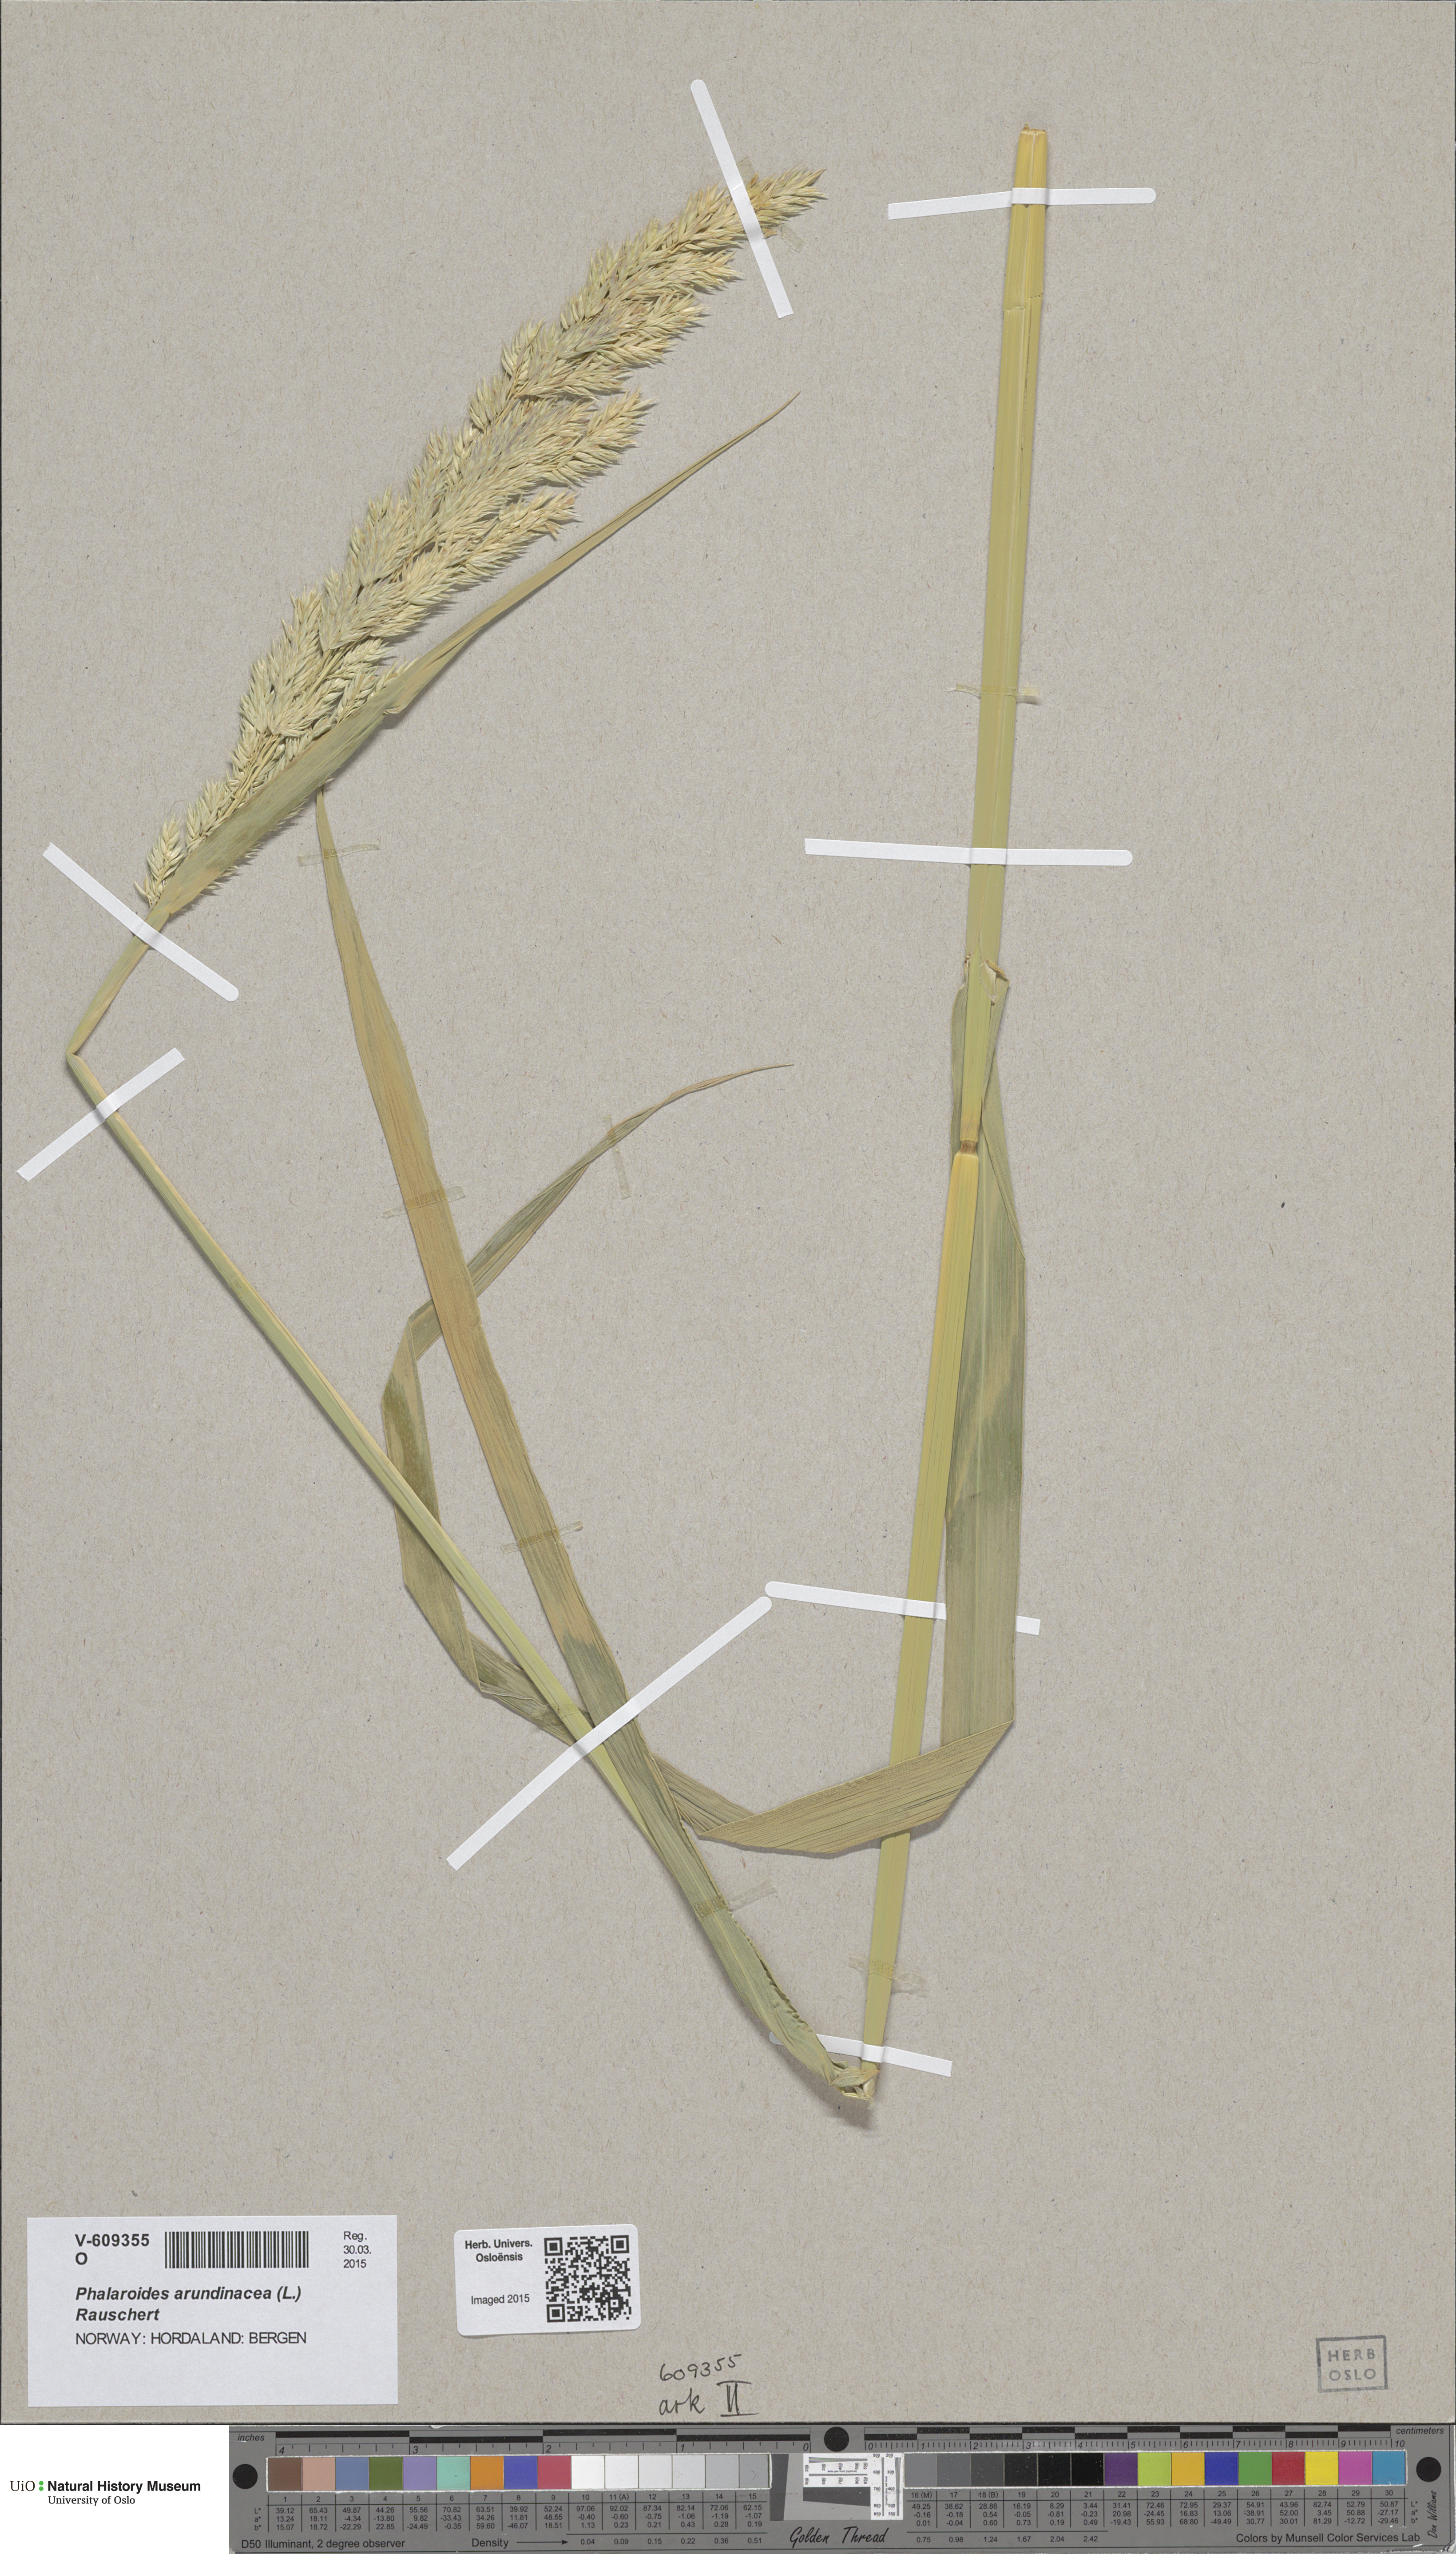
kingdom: Plantae
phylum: Tracheophyta
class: Liliopsida
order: Poales
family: Poaceae
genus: Phalaris
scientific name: Phalaris arundinacea
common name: Reed canary-grass
